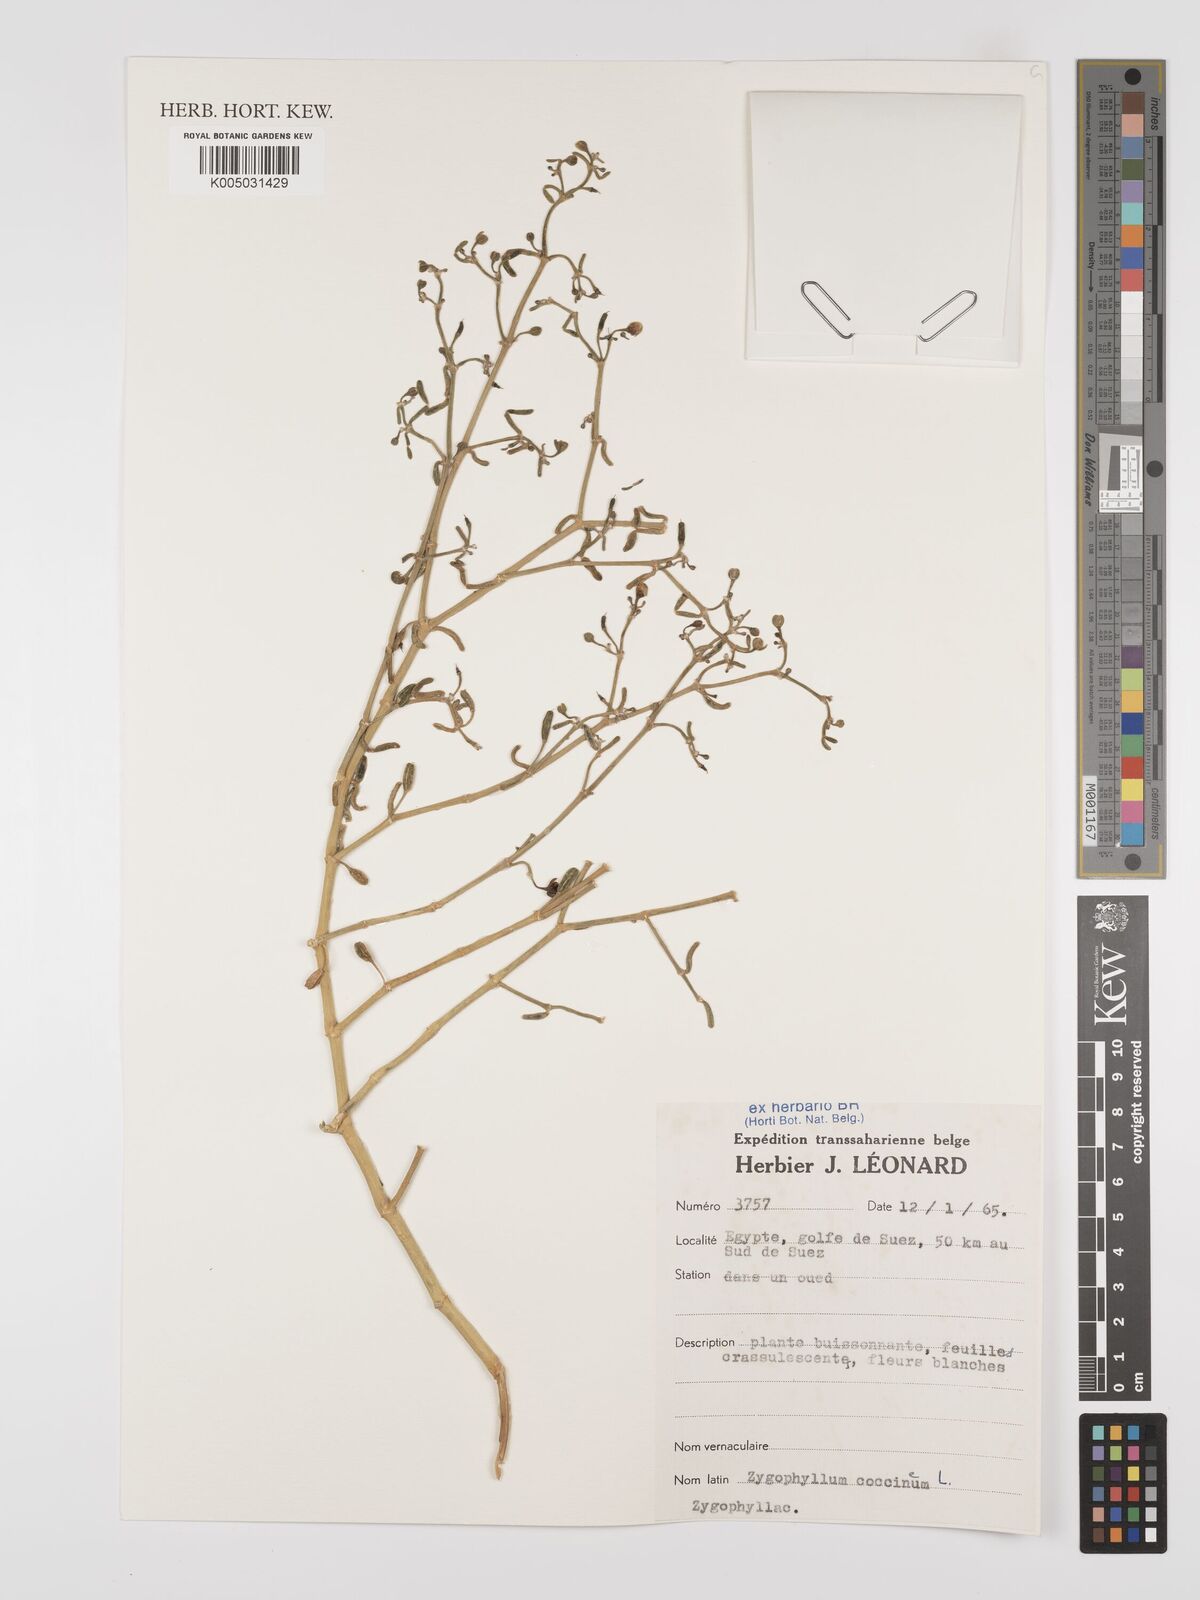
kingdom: Plantae
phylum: Tracheophyta
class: Magnoliopsida
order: Zygophyllales
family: Zygophyllaceae
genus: Zygophyllum
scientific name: Zygophyllum
